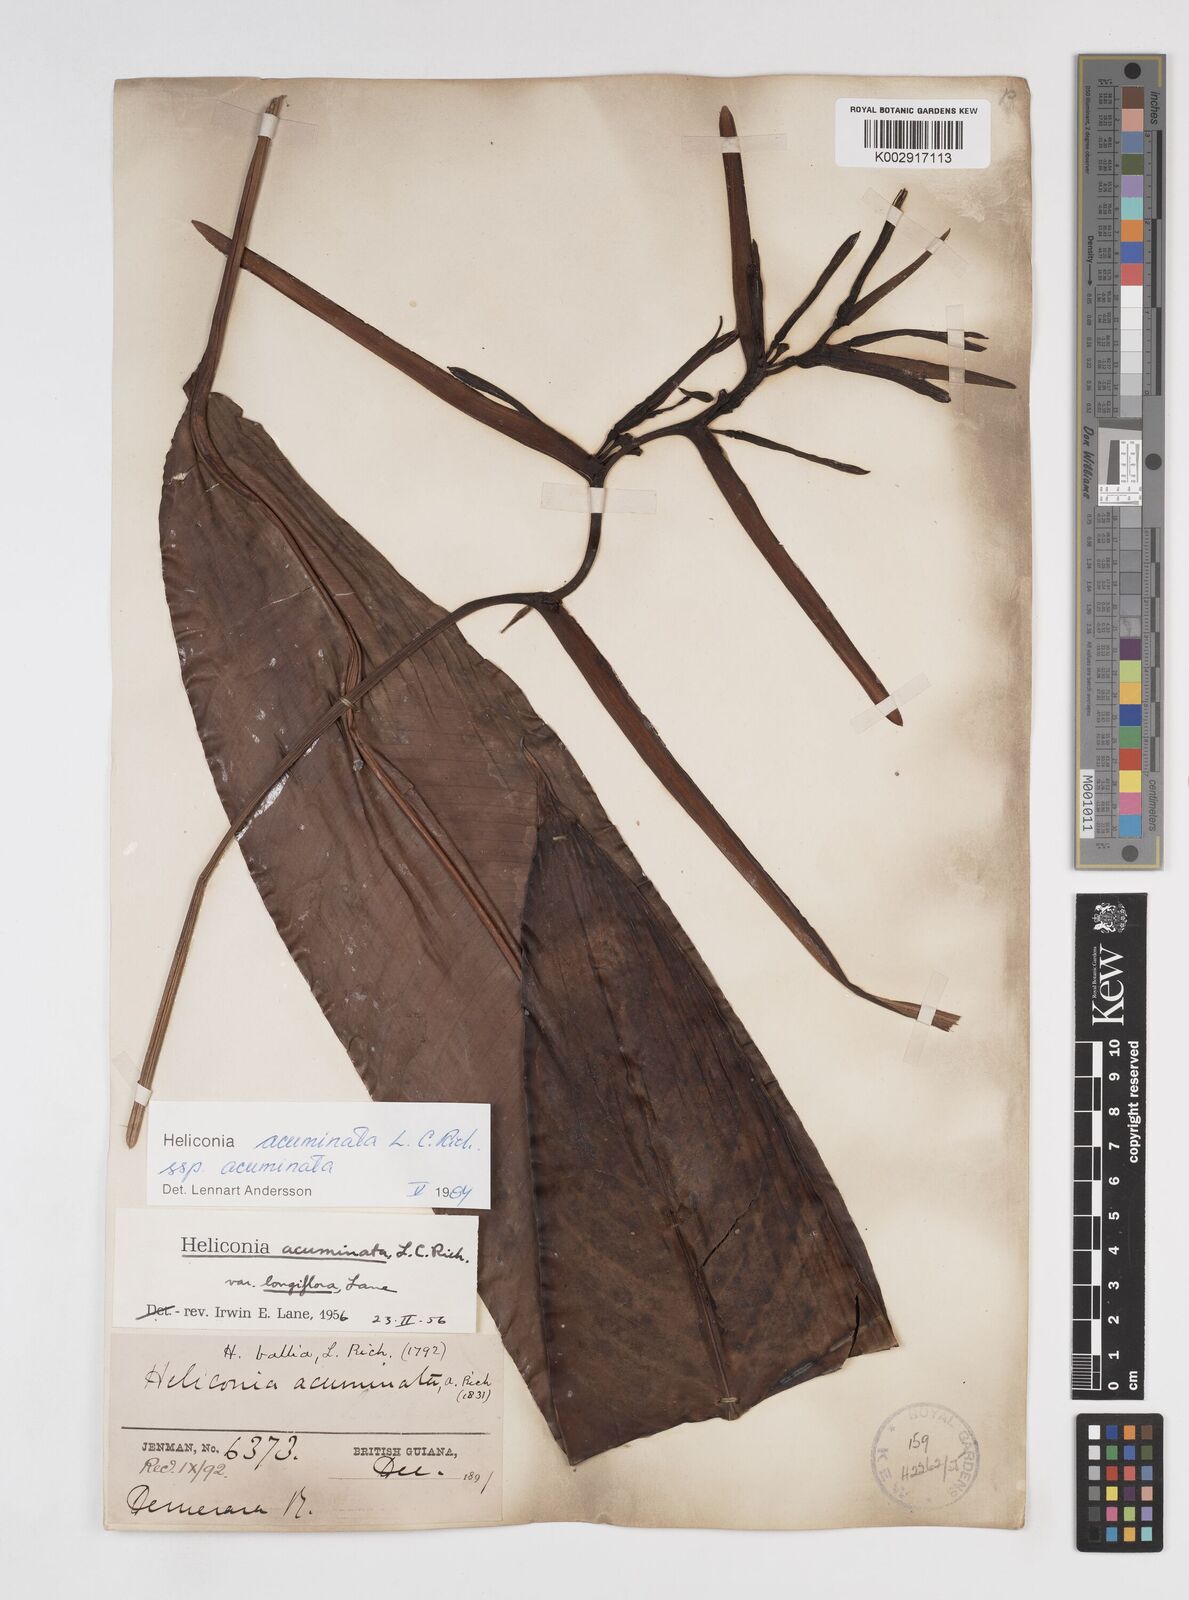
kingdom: Plantae
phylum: Tracheophyta
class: Liliopsida
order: Zingiberales
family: Heliconiaceae
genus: Heliconia
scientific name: Heliconia acuminata
